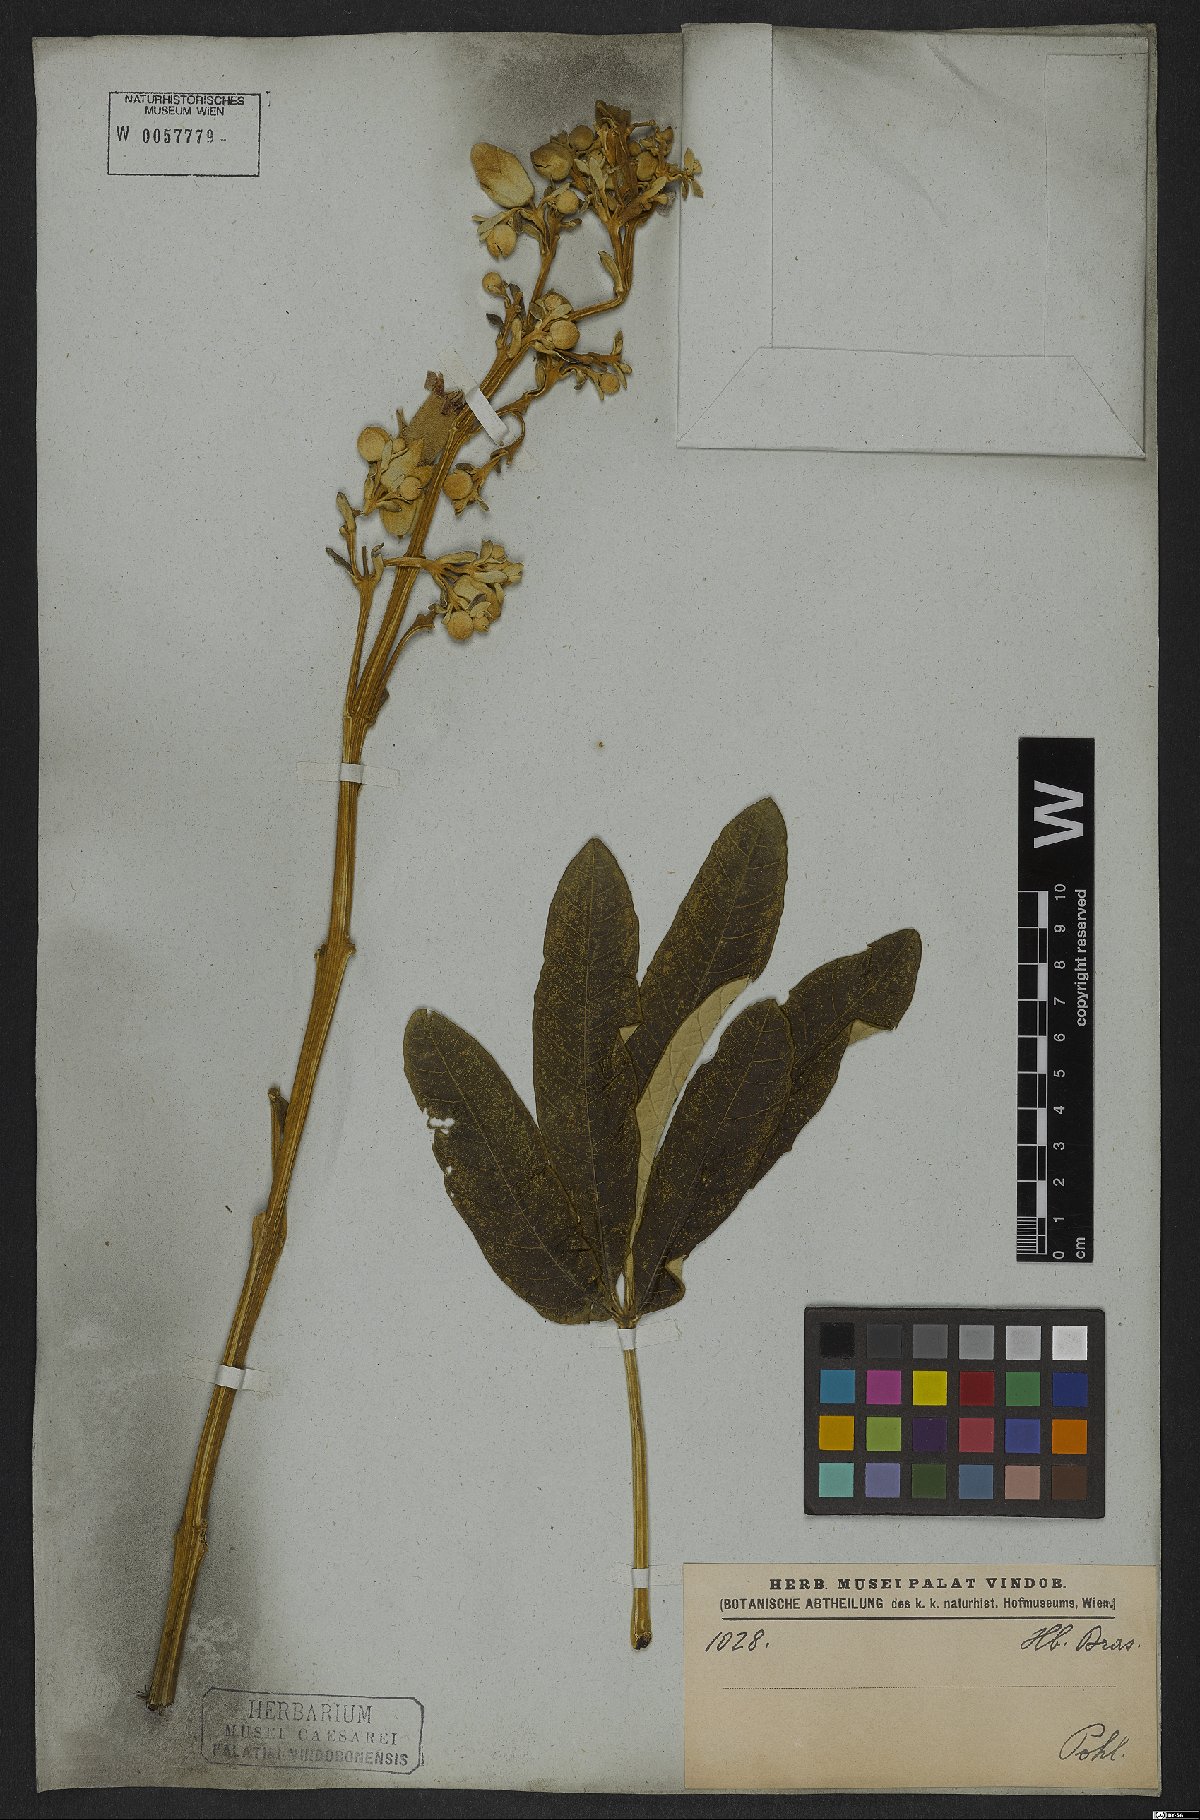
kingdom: Plantae
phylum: Tracheophyta
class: Magnoliopsida
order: Lamiales
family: Bignoniaceae
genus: Zeyheria
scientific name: Zeyheria montana
